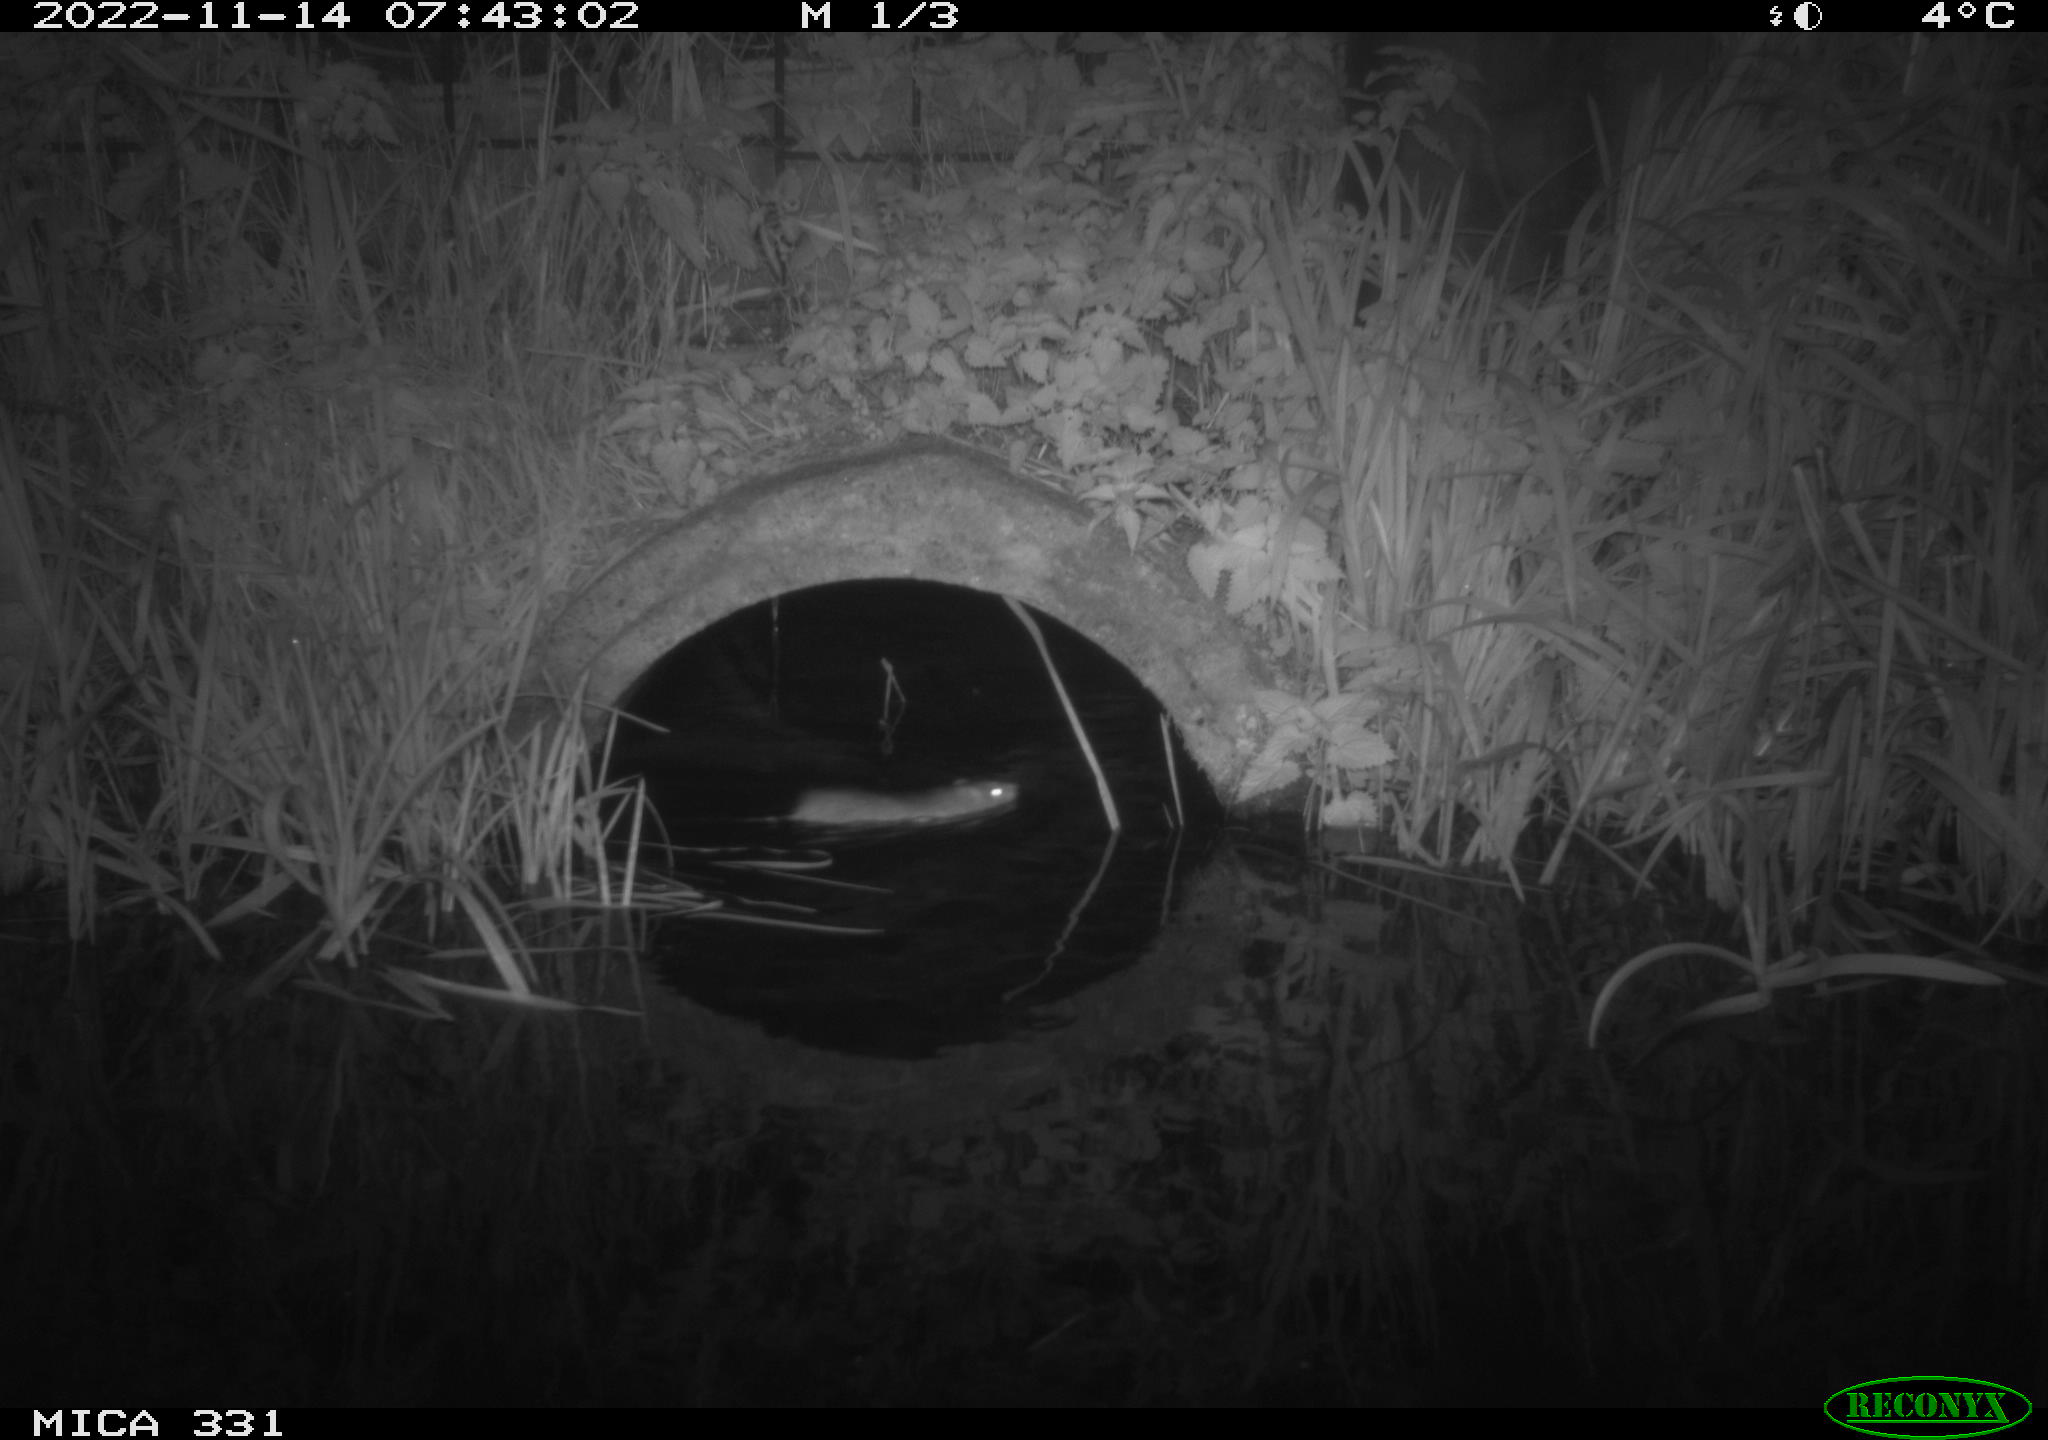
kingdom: Animalia
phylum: Chordata
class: Mammalia
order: Rodentia
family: Muridae
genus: Rattus
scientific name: Rattus norvegicus
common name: Brown rat
